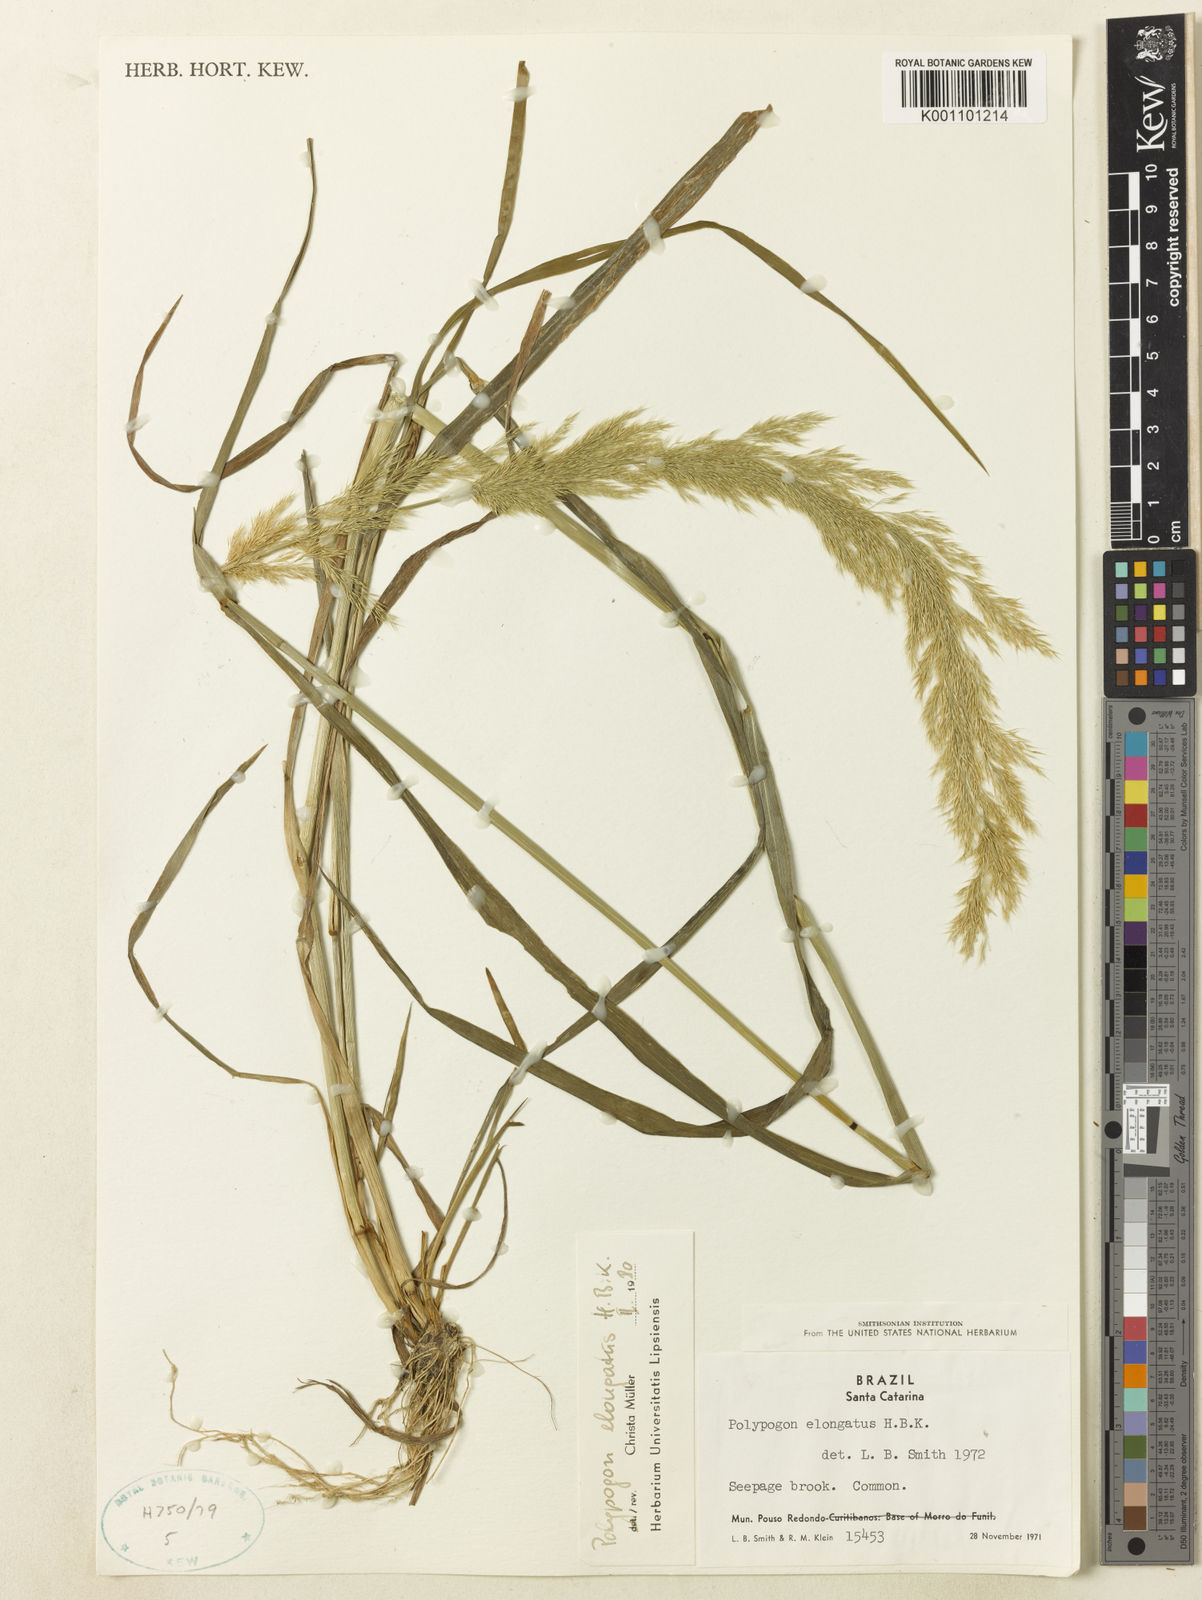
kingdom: Plantae
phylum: Tracheophyta
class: Liliopsida
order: Poales
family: Poaceae
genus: Polypogon
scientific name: Polypogon elongatus
